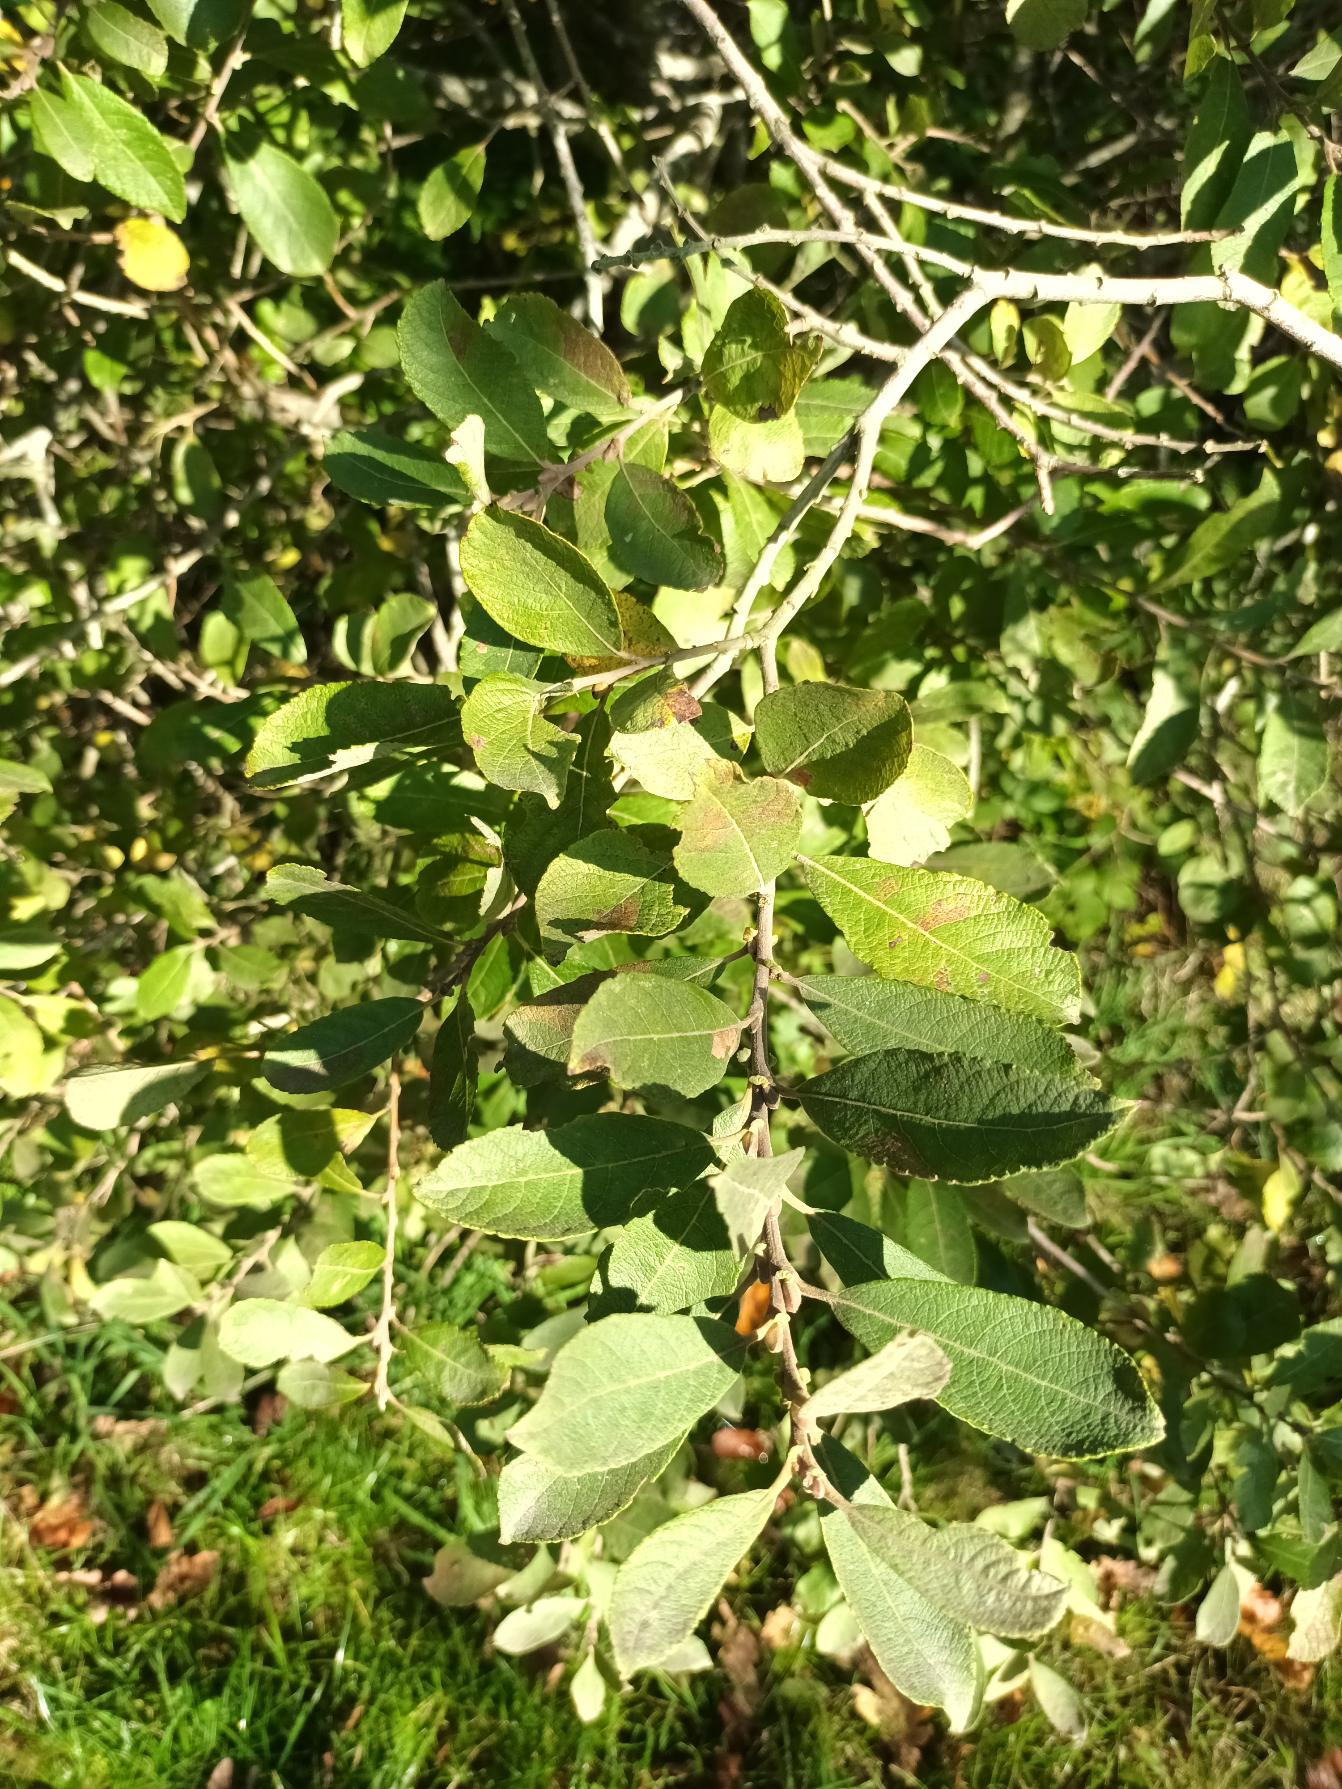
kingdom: Plantae
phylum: Tracheophyta
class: Magnoliopsida
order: Malpighiales
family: Salicaceae
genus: Salix
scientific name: Salix cinerea
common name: Grå-pil
